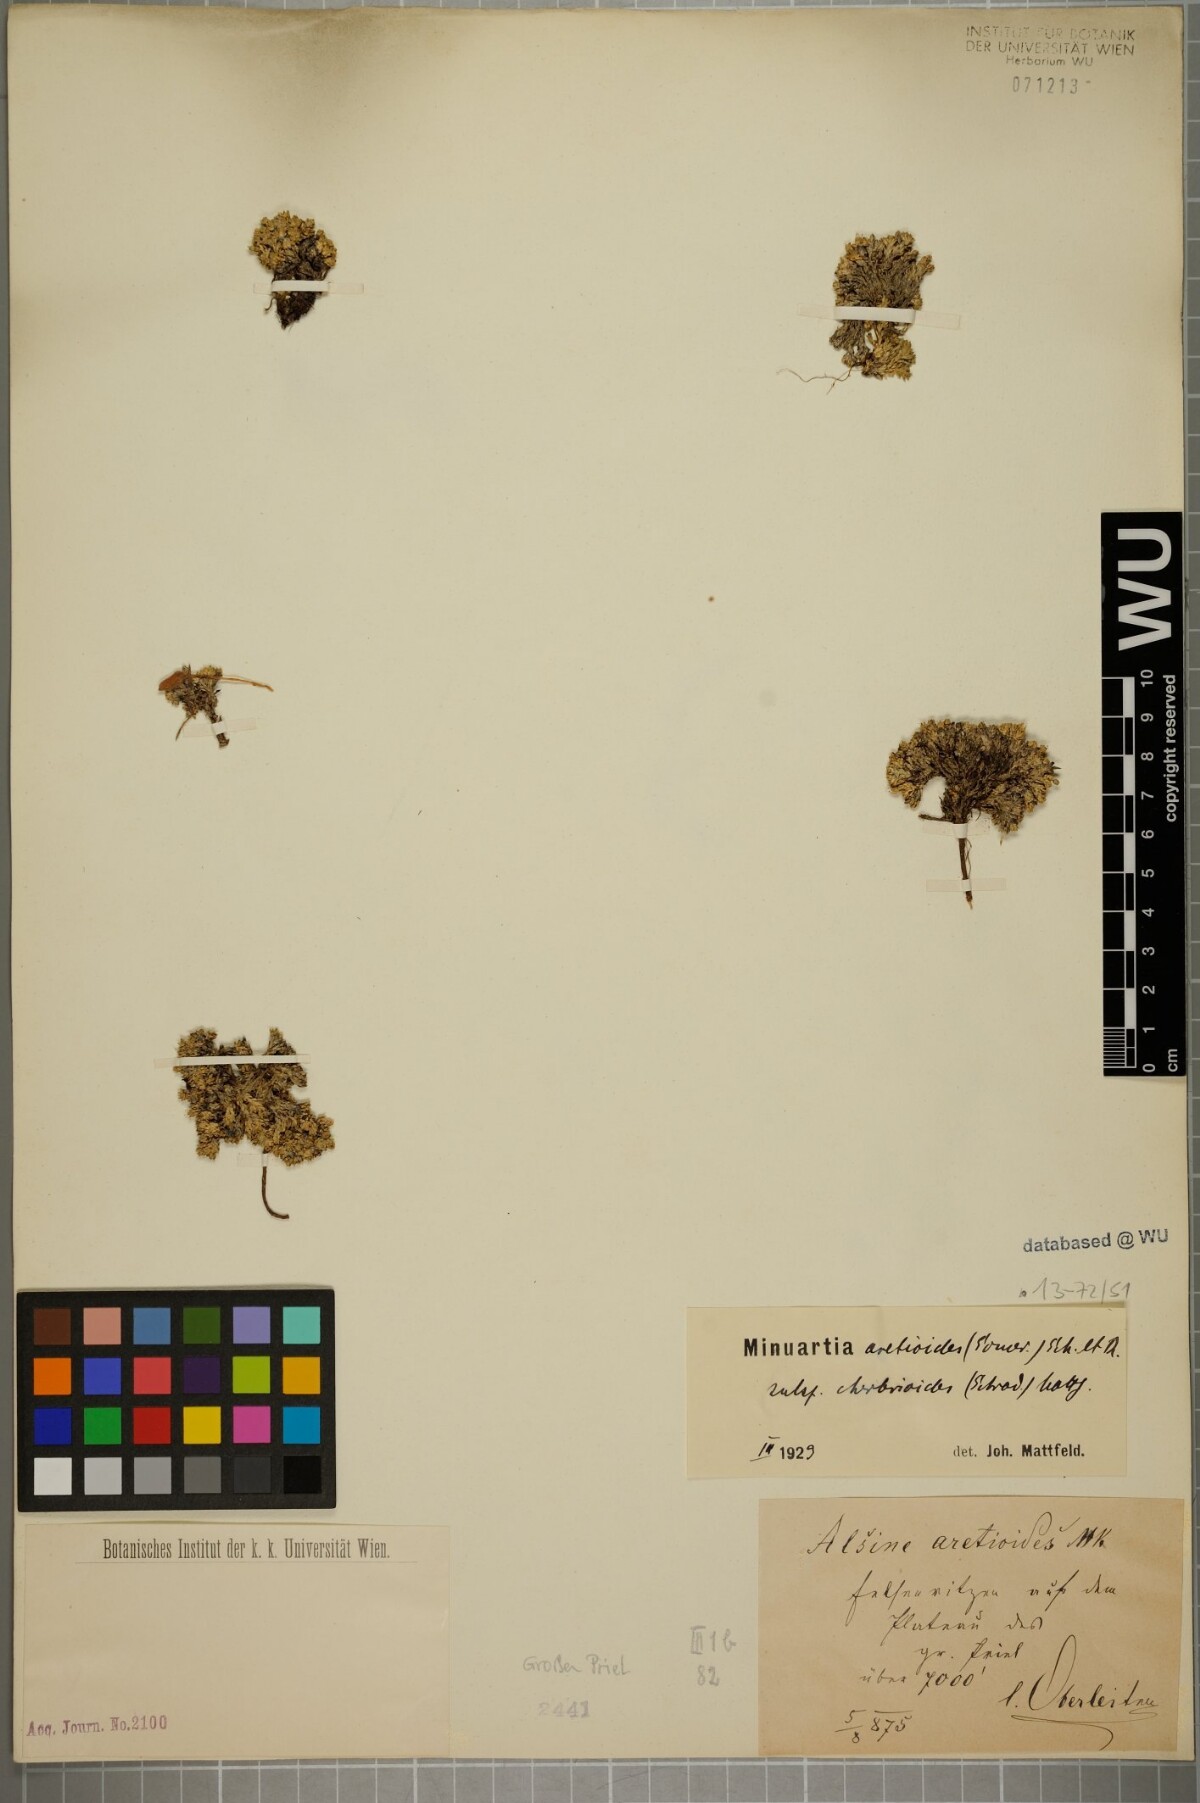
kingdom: Plantae
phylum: Tracheophyta
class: Magnoliopsida
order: Caryophyllales
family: Caryophyllaceae
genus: Facchinia
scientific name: Facchinia cherlerioides
